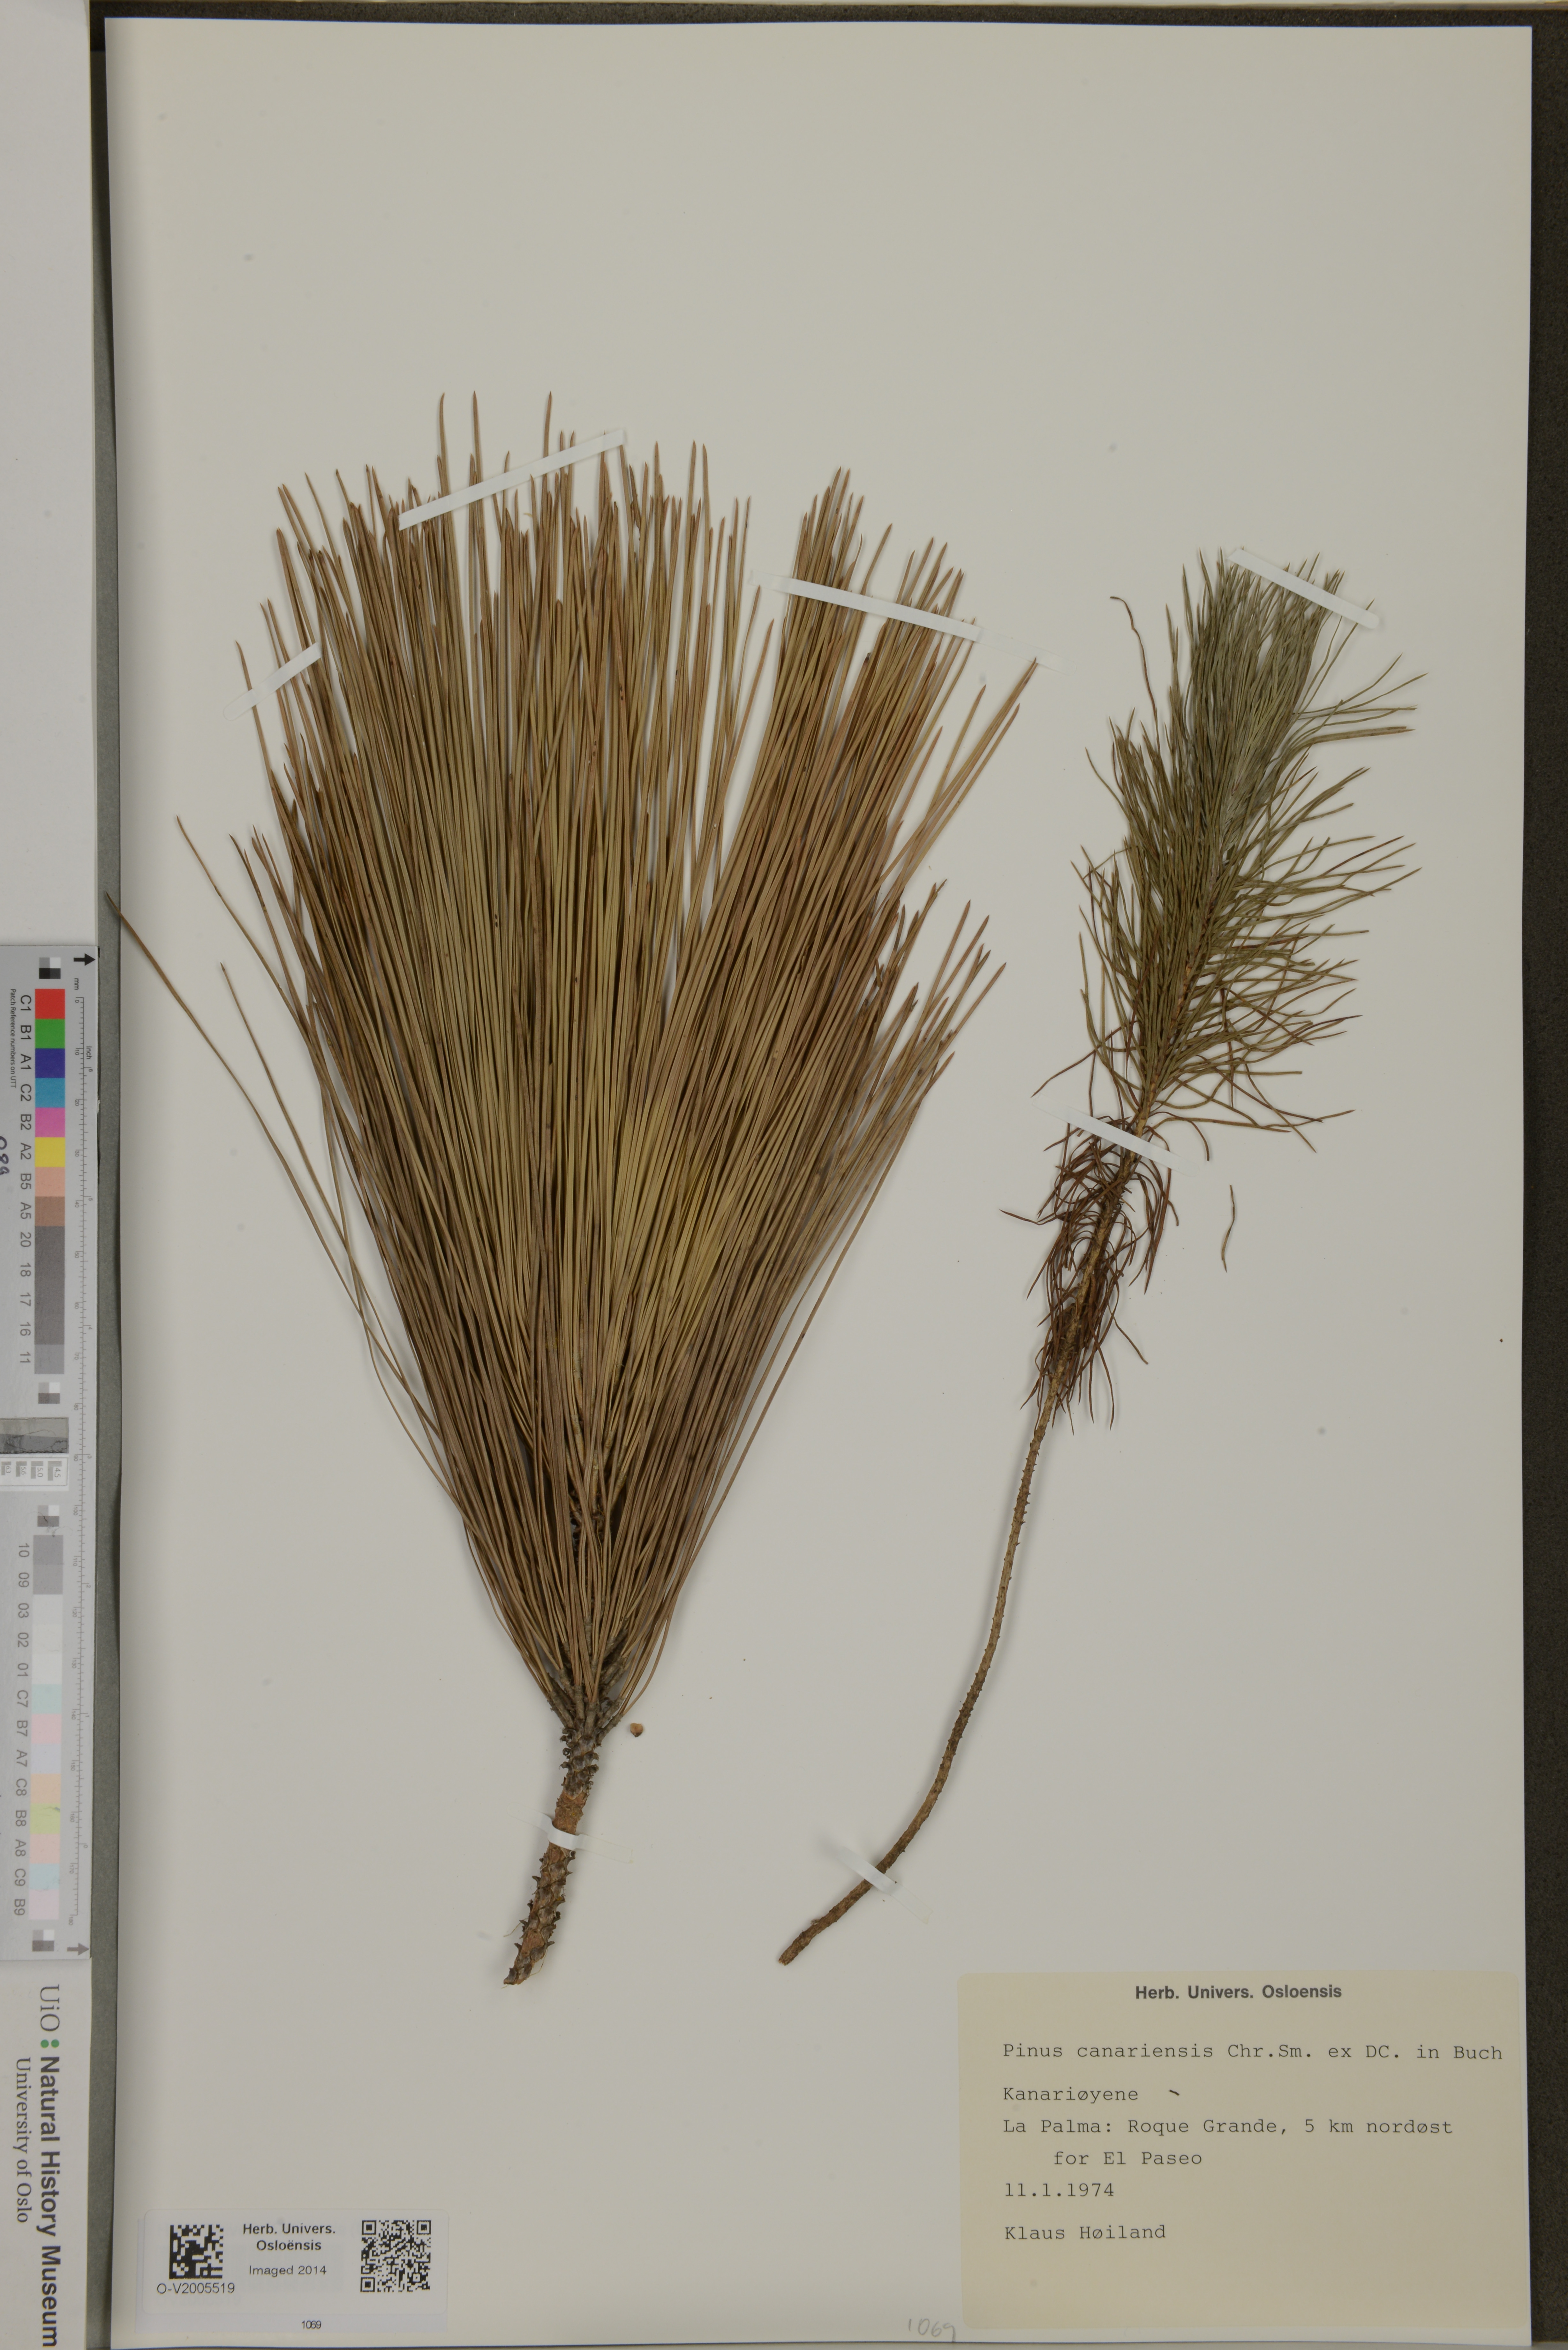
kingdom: Plantae
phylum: Tracheophyta
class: Pinopsida
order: Pinales
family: Pinaceae
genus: Pinus
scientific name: Pinus canariensis
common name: Canary islands pine
